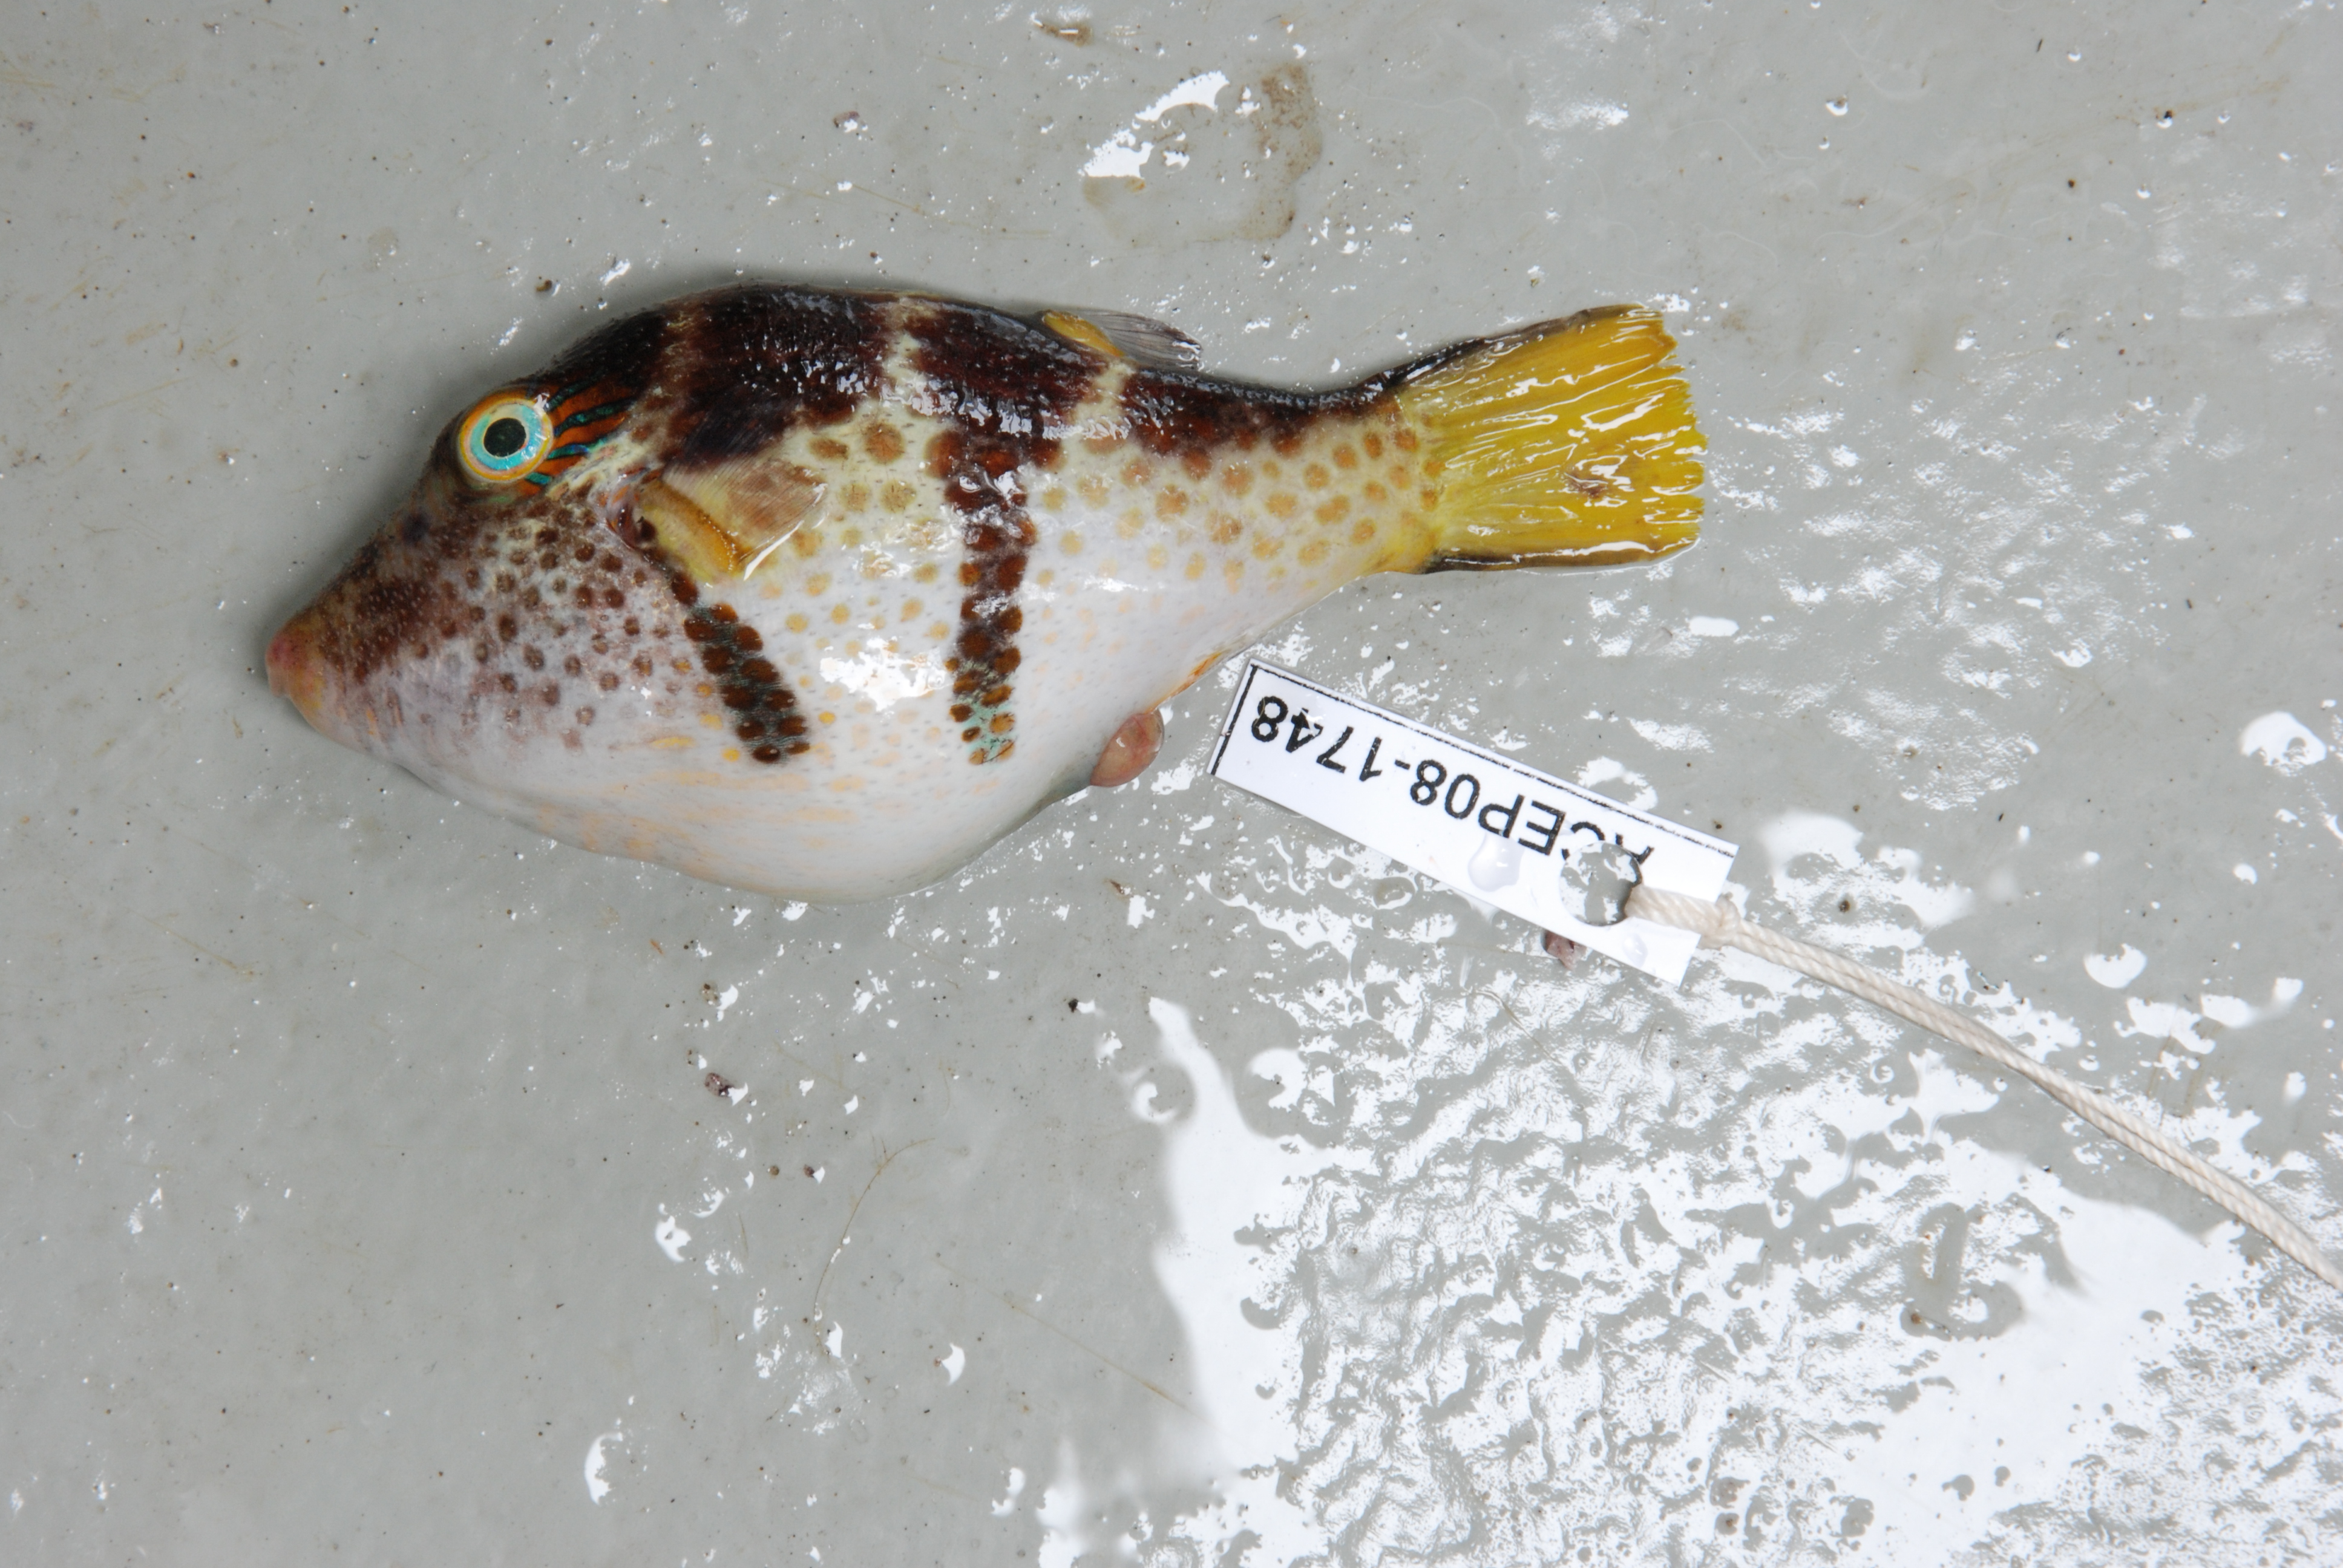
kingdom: Animalia
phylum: Chordata
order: Tetraodontiformes
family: Tetraodontidae
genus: Canthigaster
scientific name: Canthigaster valentini
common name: Banded toby
